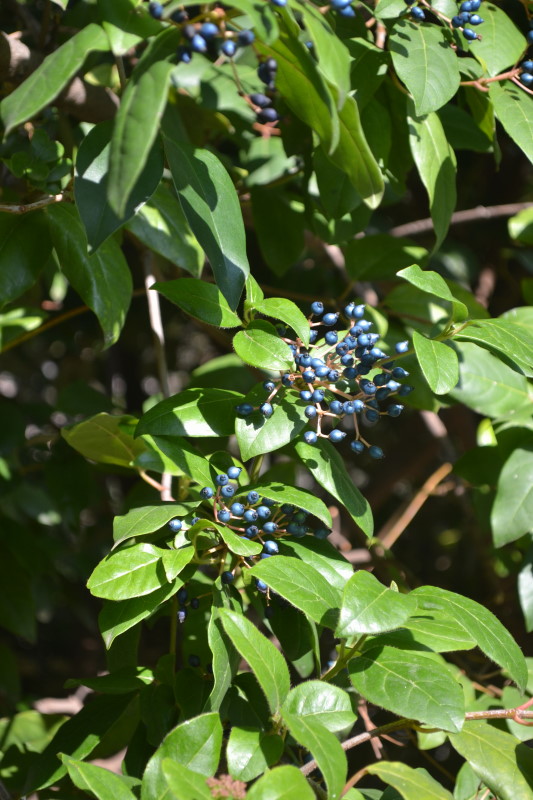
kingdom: Plantae
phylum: Tracheophyta
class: Magnoliopsida
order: Dipsacales
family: Viburnaceae
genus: Viburnum
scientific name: Viburnum tinus
